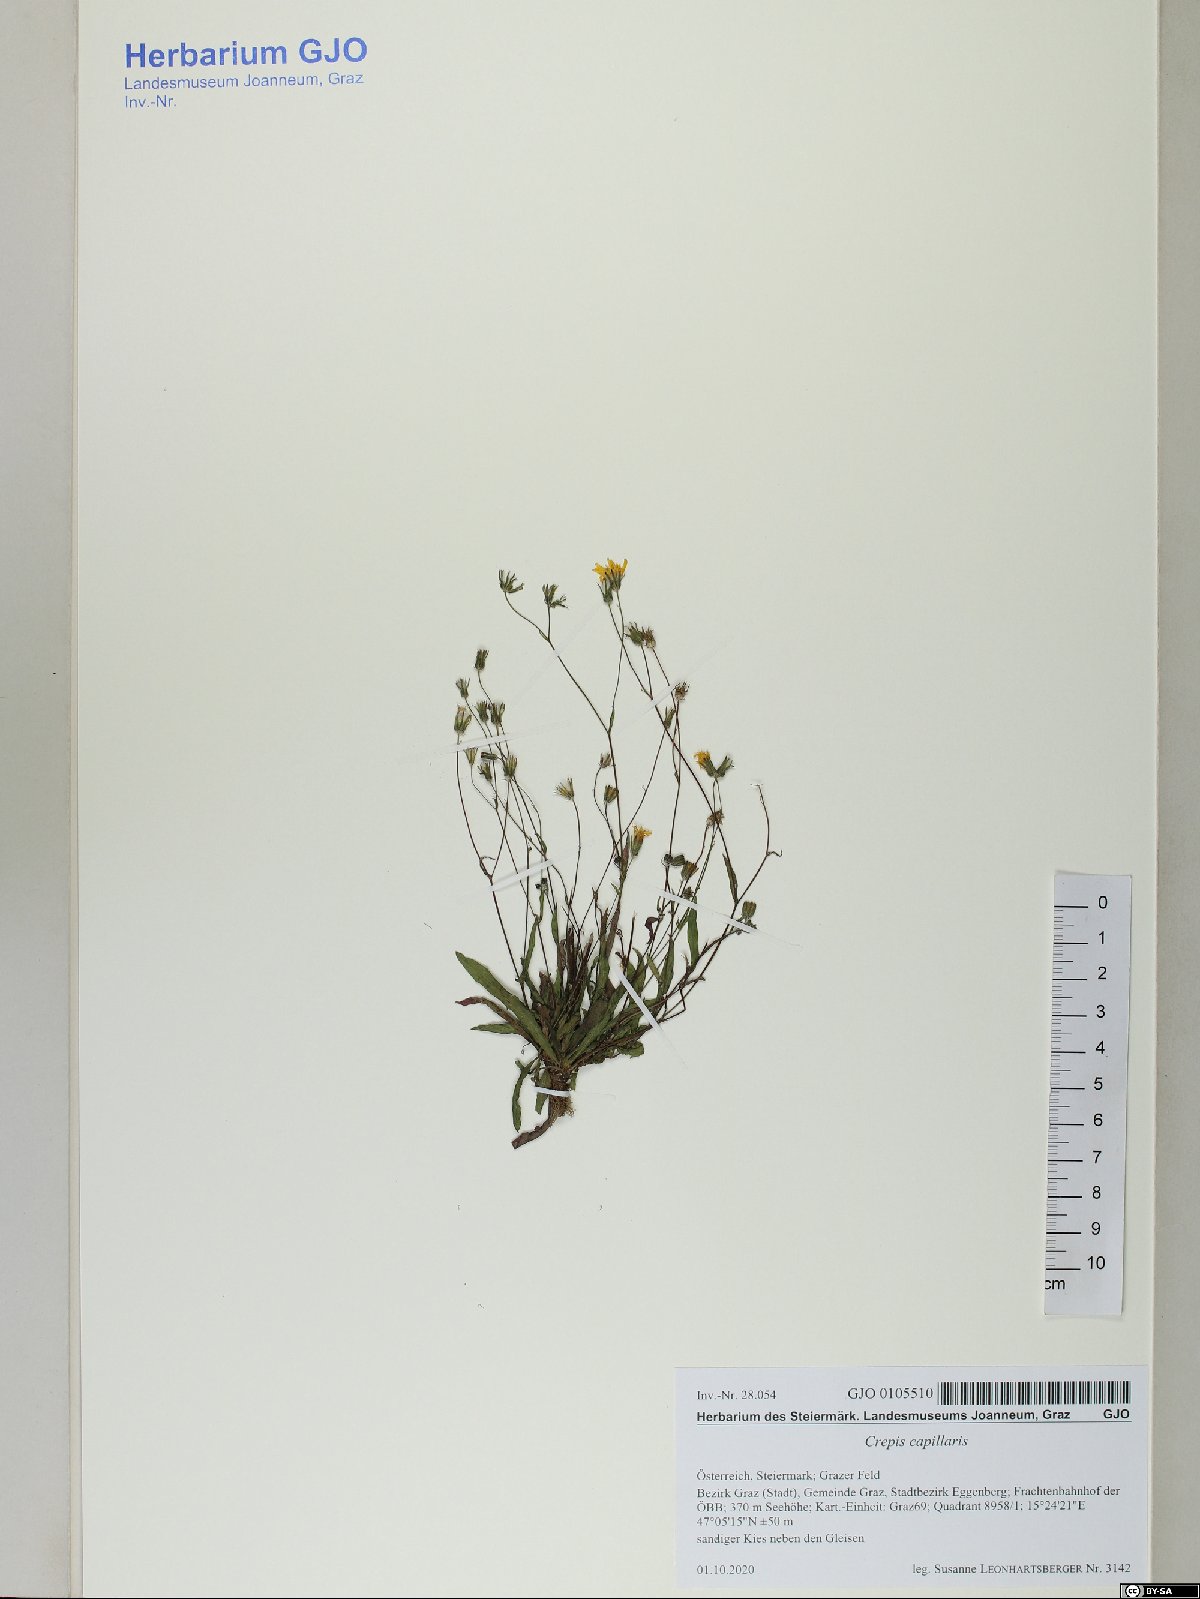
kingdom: Plantae
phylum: Tracheophyta
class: Magnoliopsida
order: Asterales
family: Asteraceae
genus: Crepis
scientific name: Crepis capillaris
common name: Smooth hawksbeard
